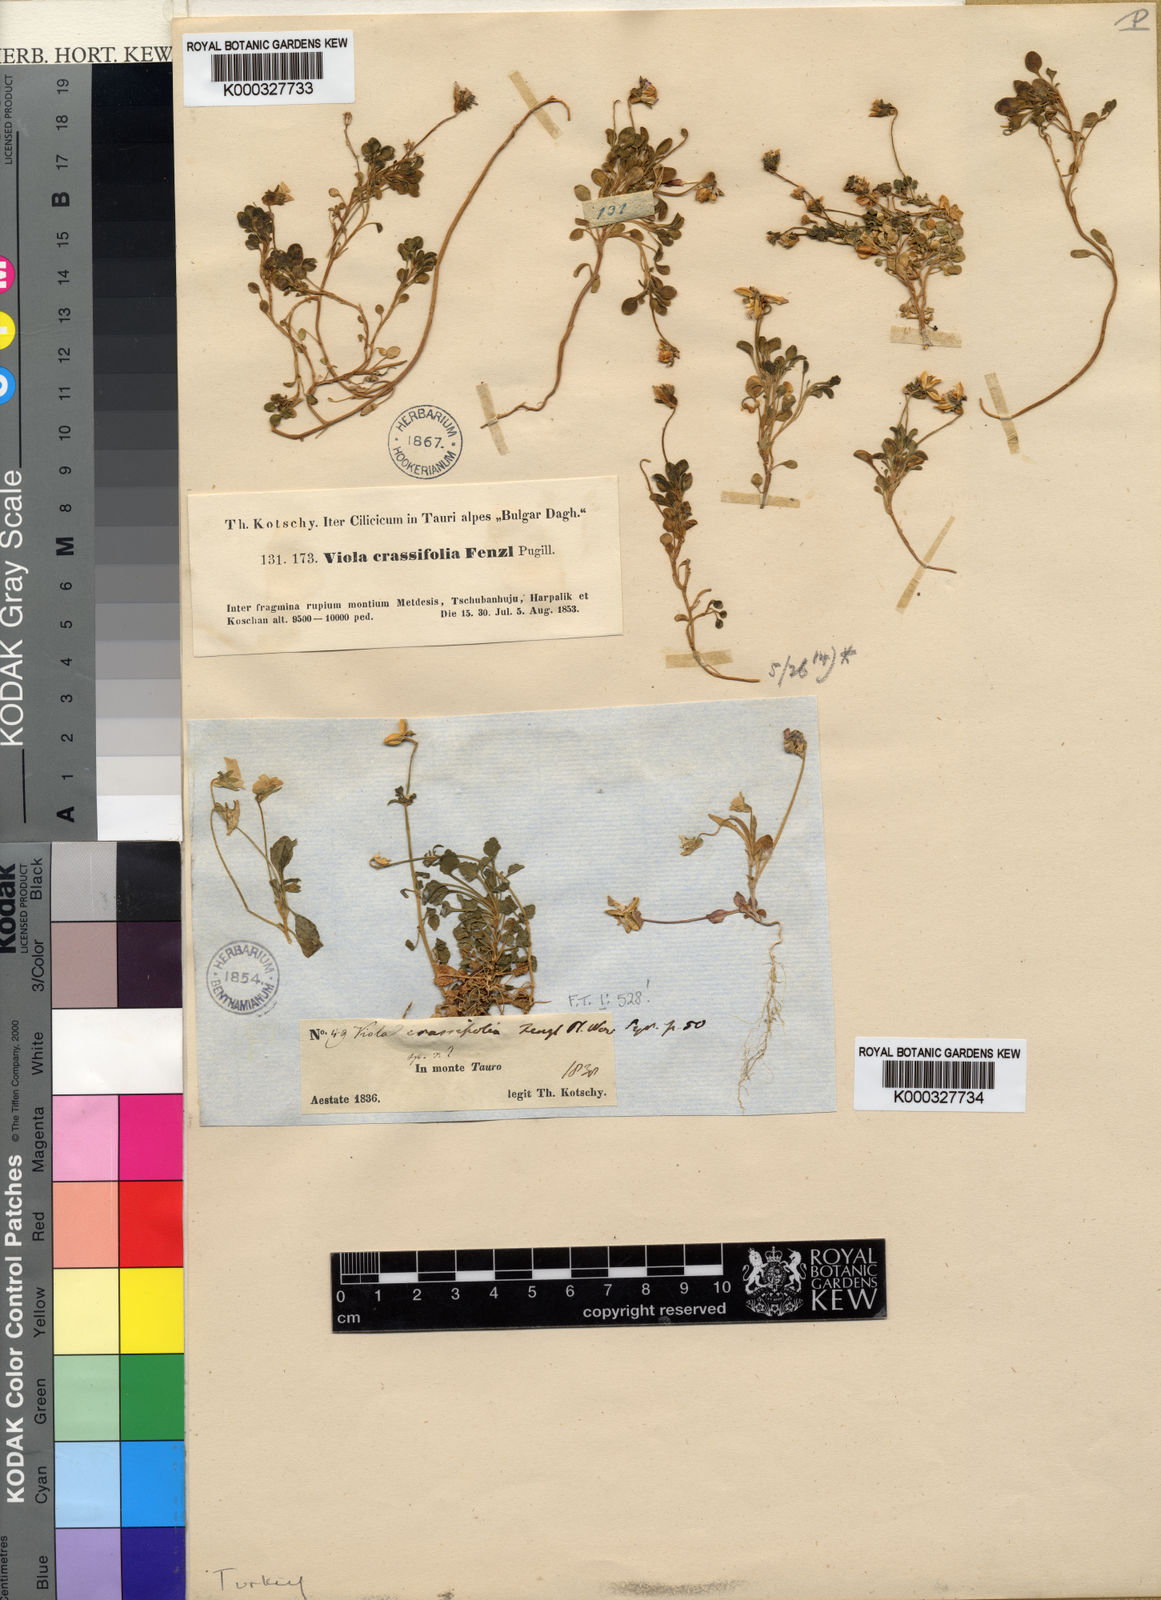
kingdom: Plantae
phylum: Tracheophyta
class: Magnoliopsida
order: Malpighiales
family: Violaceae
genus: Viola
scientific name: Viola crassifolia
